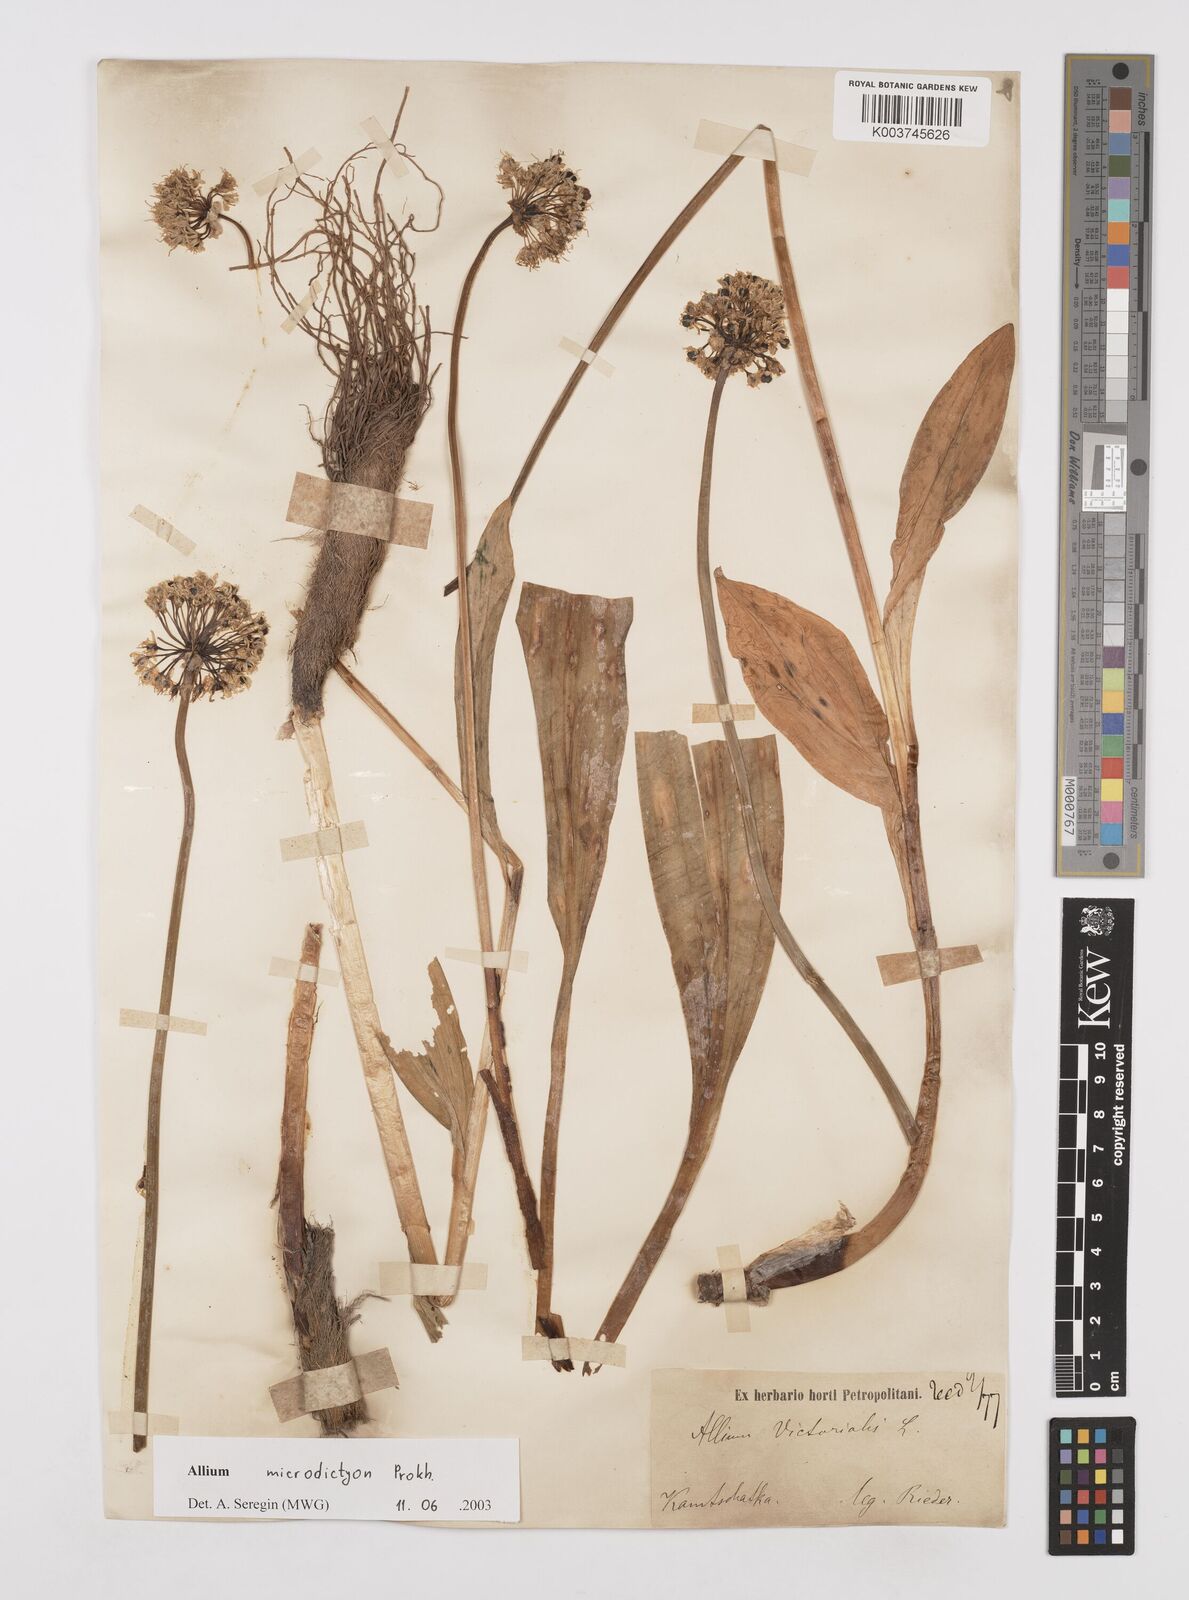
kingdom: Plantae
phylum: Tracheophyta
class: Liliopsida
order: Asparagales
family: Amaryllidaceae
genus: Allium
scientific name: Allium victorialis
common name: Alpine leek
